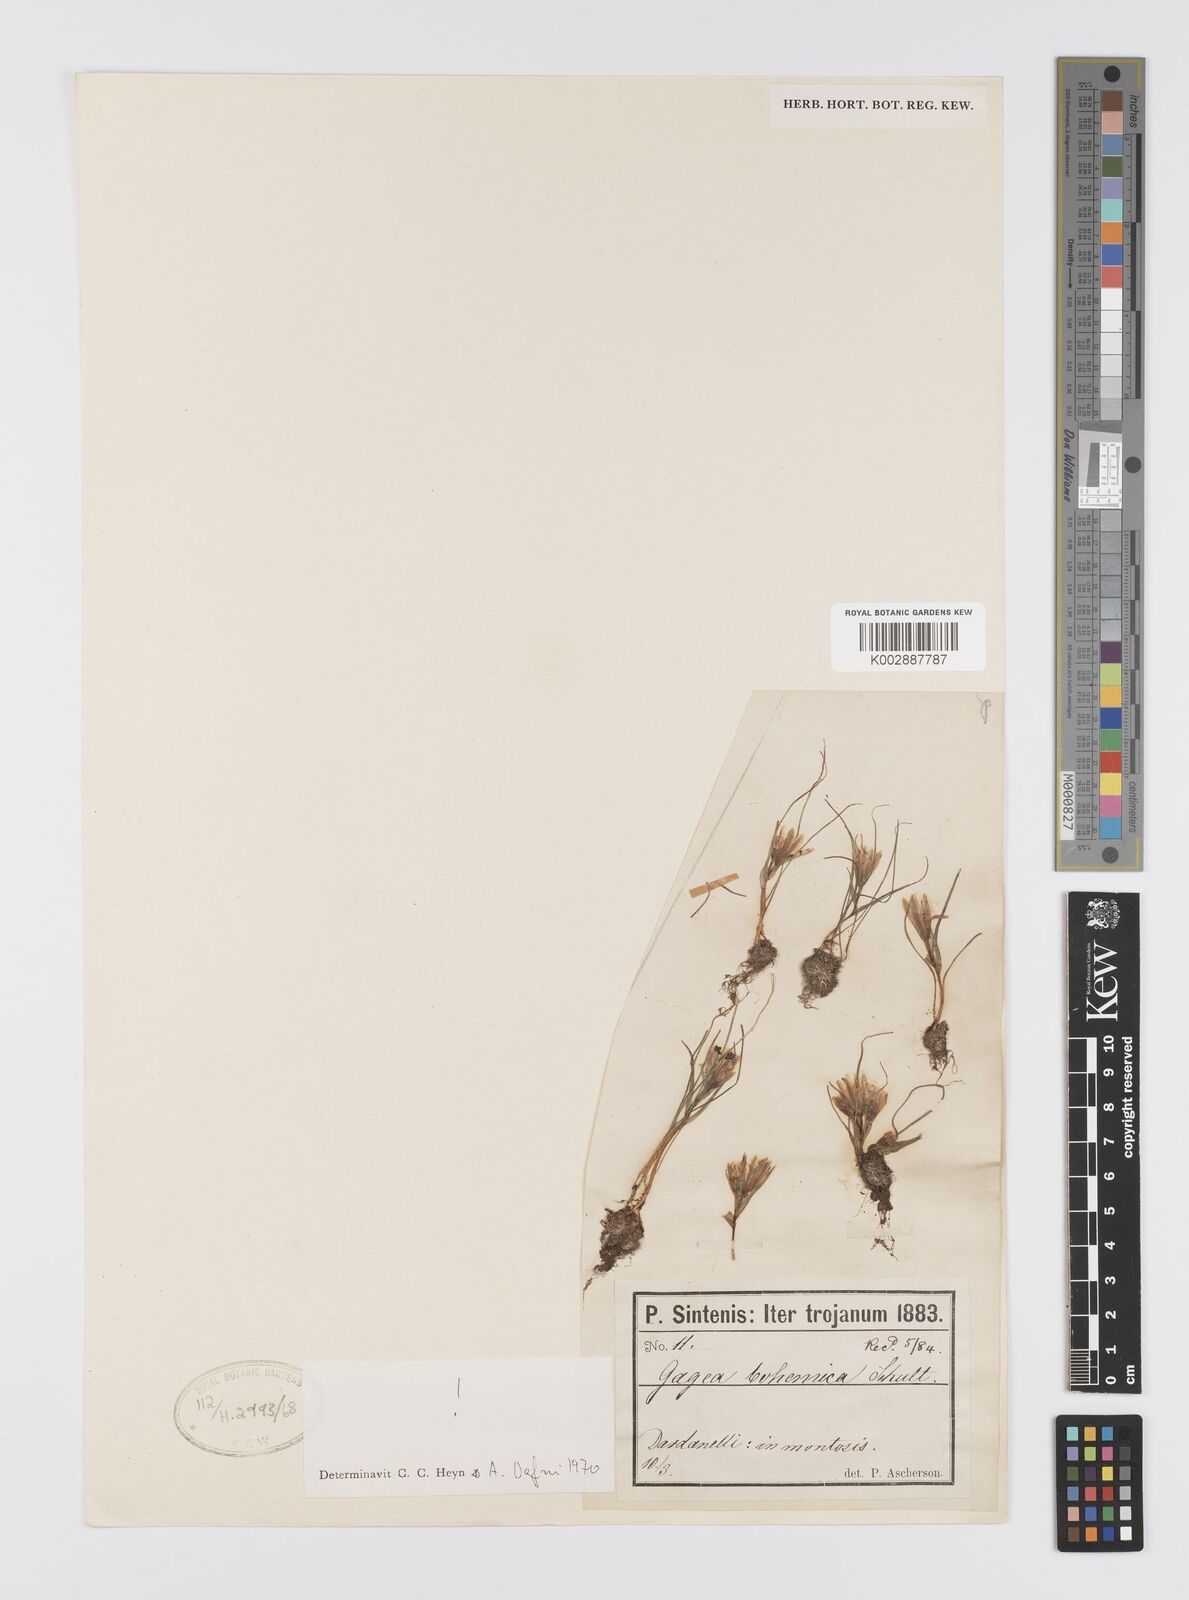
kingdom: Plantae
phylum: Tracheophyta
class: Liliopsida
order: Liliales
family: Liliaceae
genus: Gagea
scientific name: Gagea bohemica
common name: Early star-of-bethlehem
